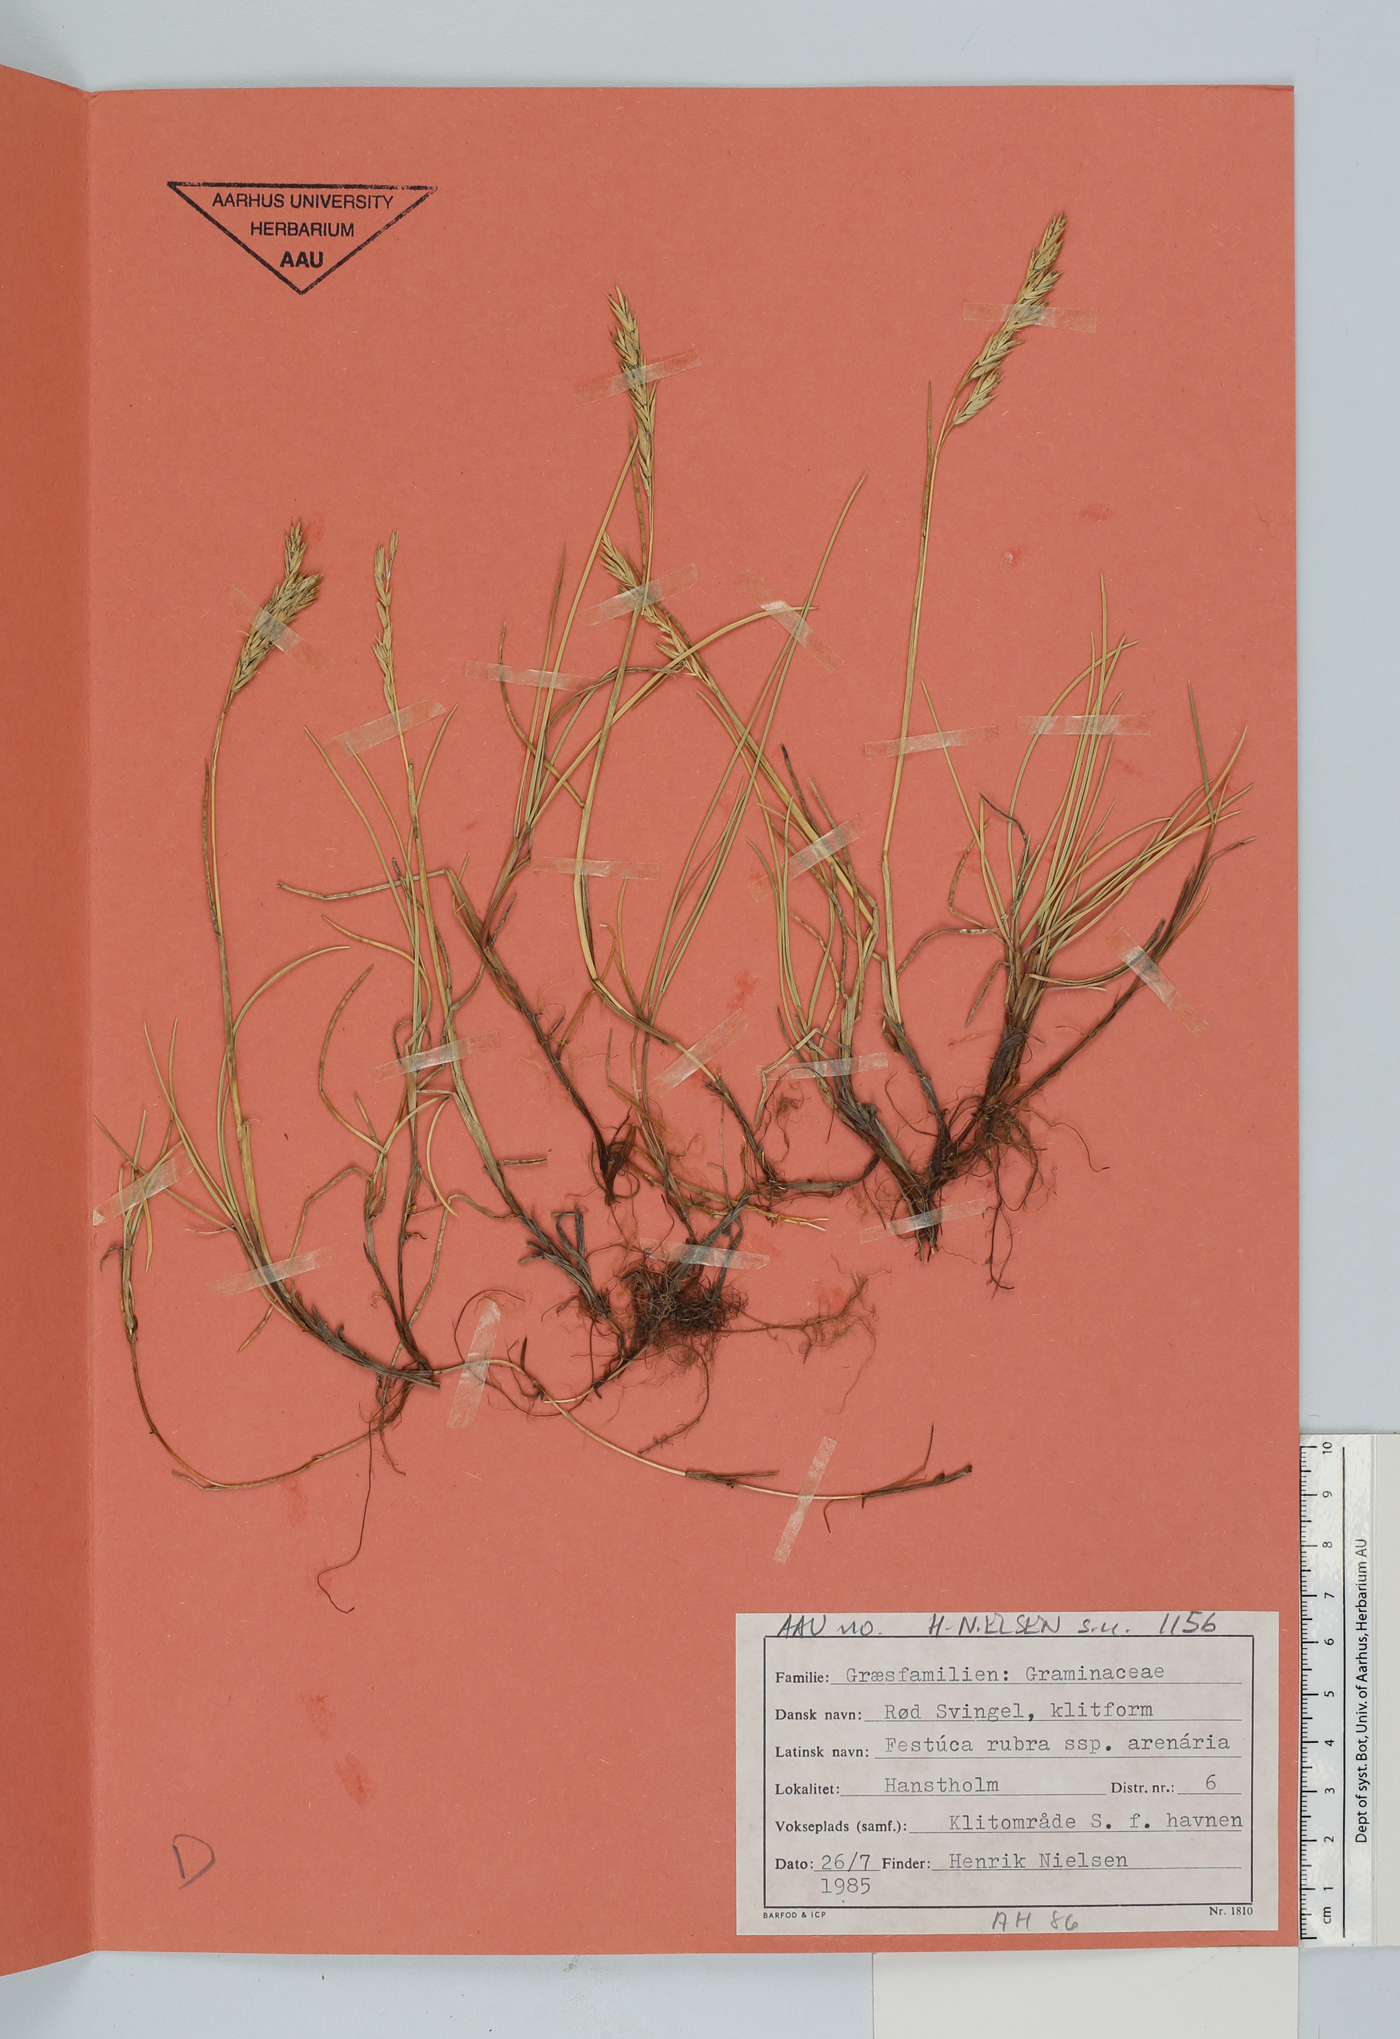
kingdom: Plantae
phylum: Tracheophyta
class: Liliopsida
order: Poales
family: Poaceae
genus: Festuca
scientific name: Festuca rubra
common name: Red fescue
